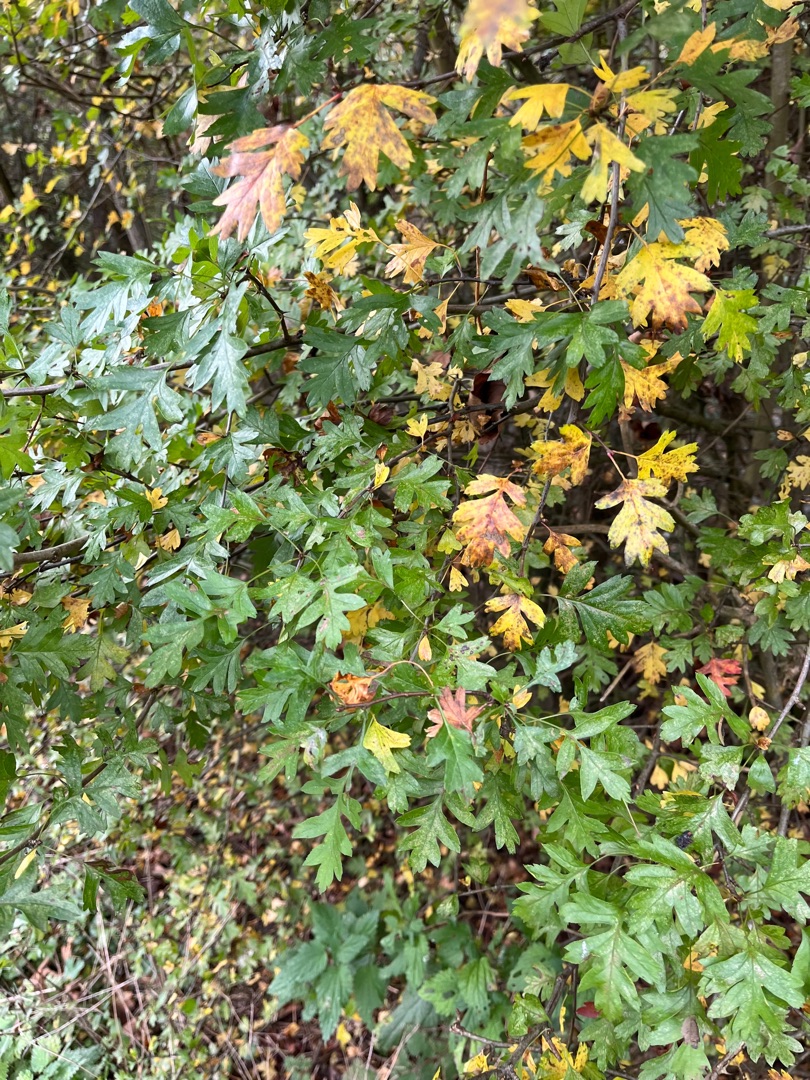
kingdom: Plantae
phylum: Tracheophyta
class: Magnoliopsida
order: Rosales
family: Rosaceae
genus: Crataegus
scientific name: Crataegus monogyna
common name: Engriflet hvidtjørn
